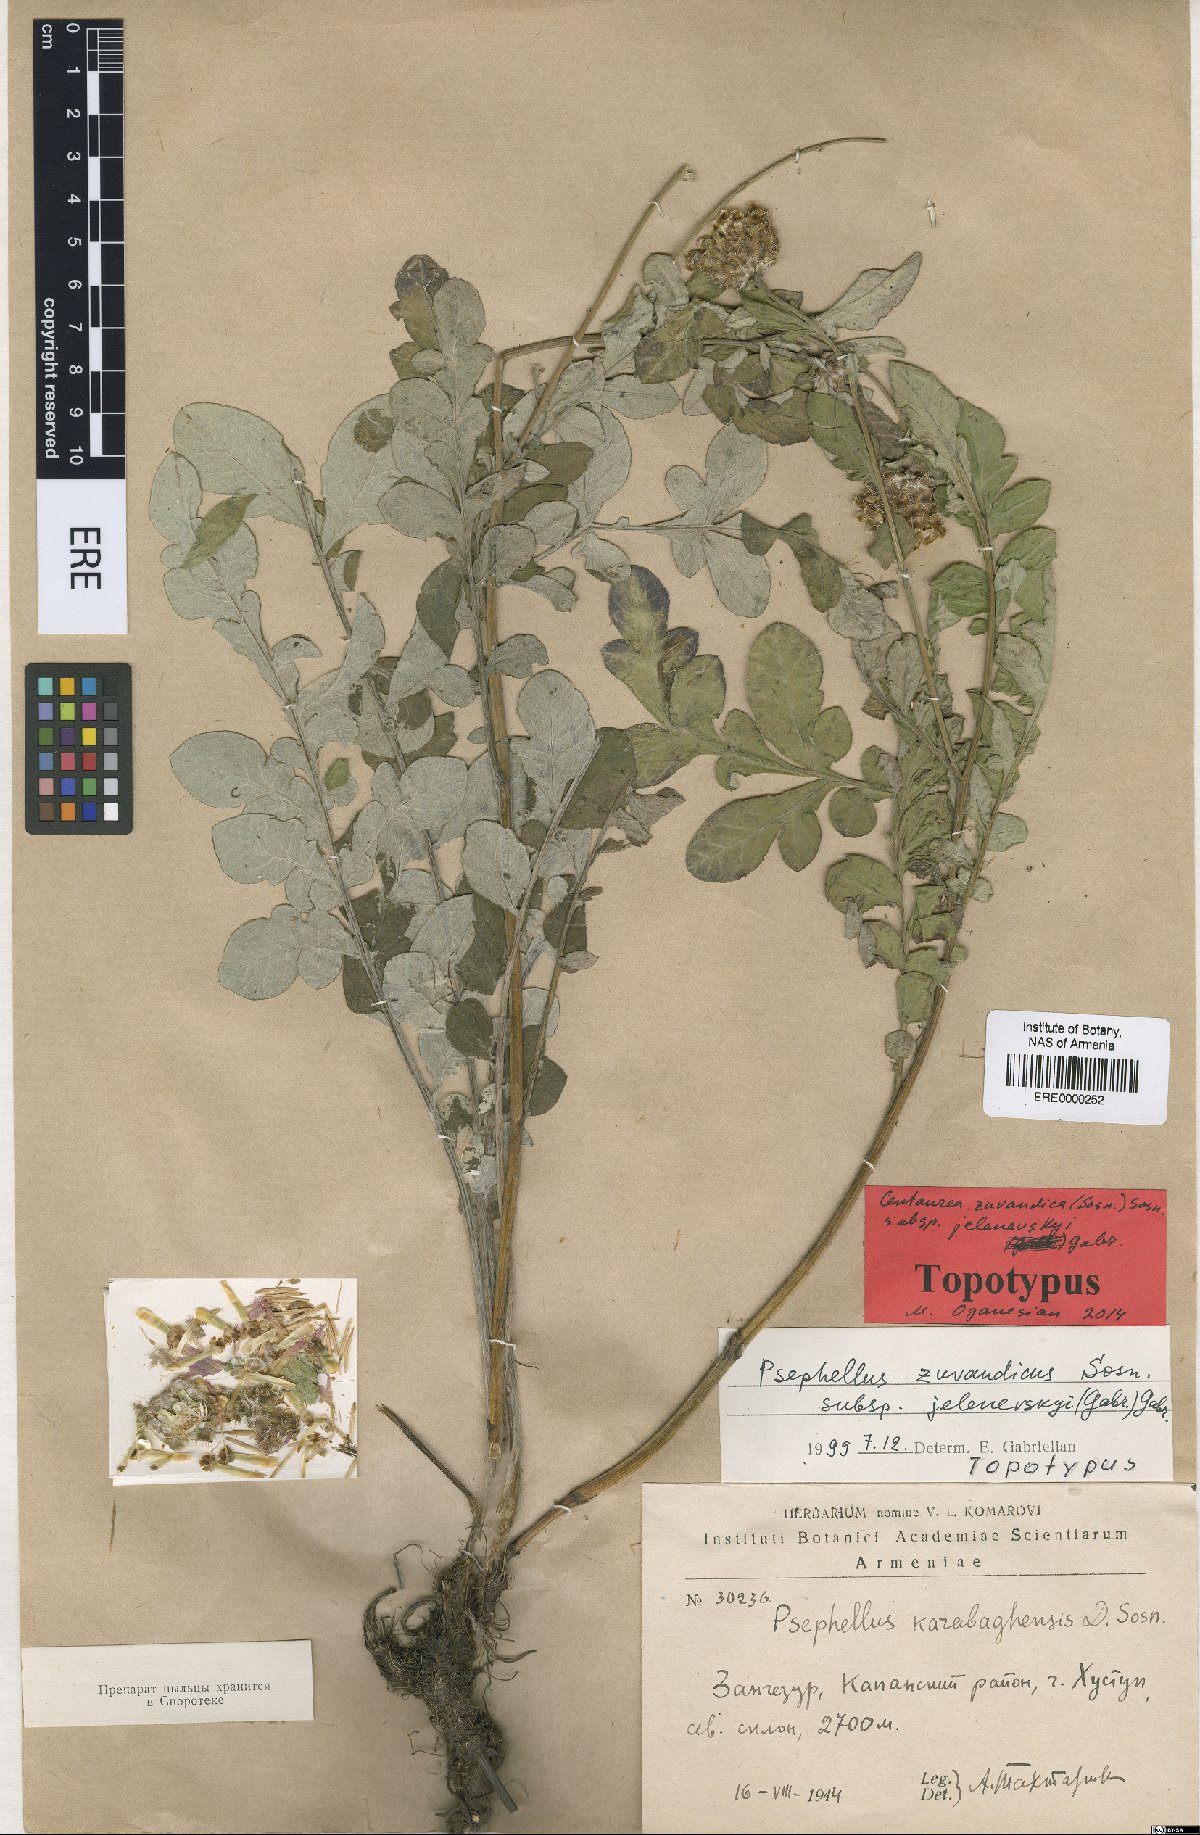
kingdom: Plantae
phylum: Tracheophyta
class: Magnoliopsida
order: Asterales
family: Asteraceae
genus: Psephellus
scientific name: Psephellus zuvandicus
